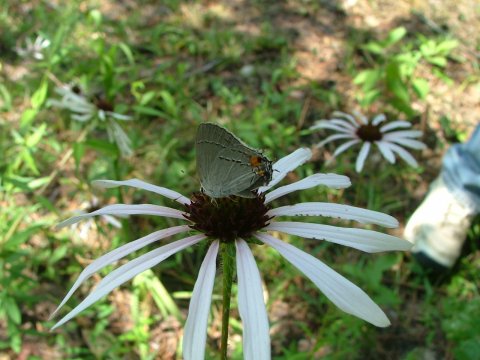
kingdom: Animalia
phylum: Arthropoda
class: Insecta
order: Lepidoptera
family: Lycaenidae
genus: Strymon
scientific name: Strymon melinus
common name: Gray Hairstreak
